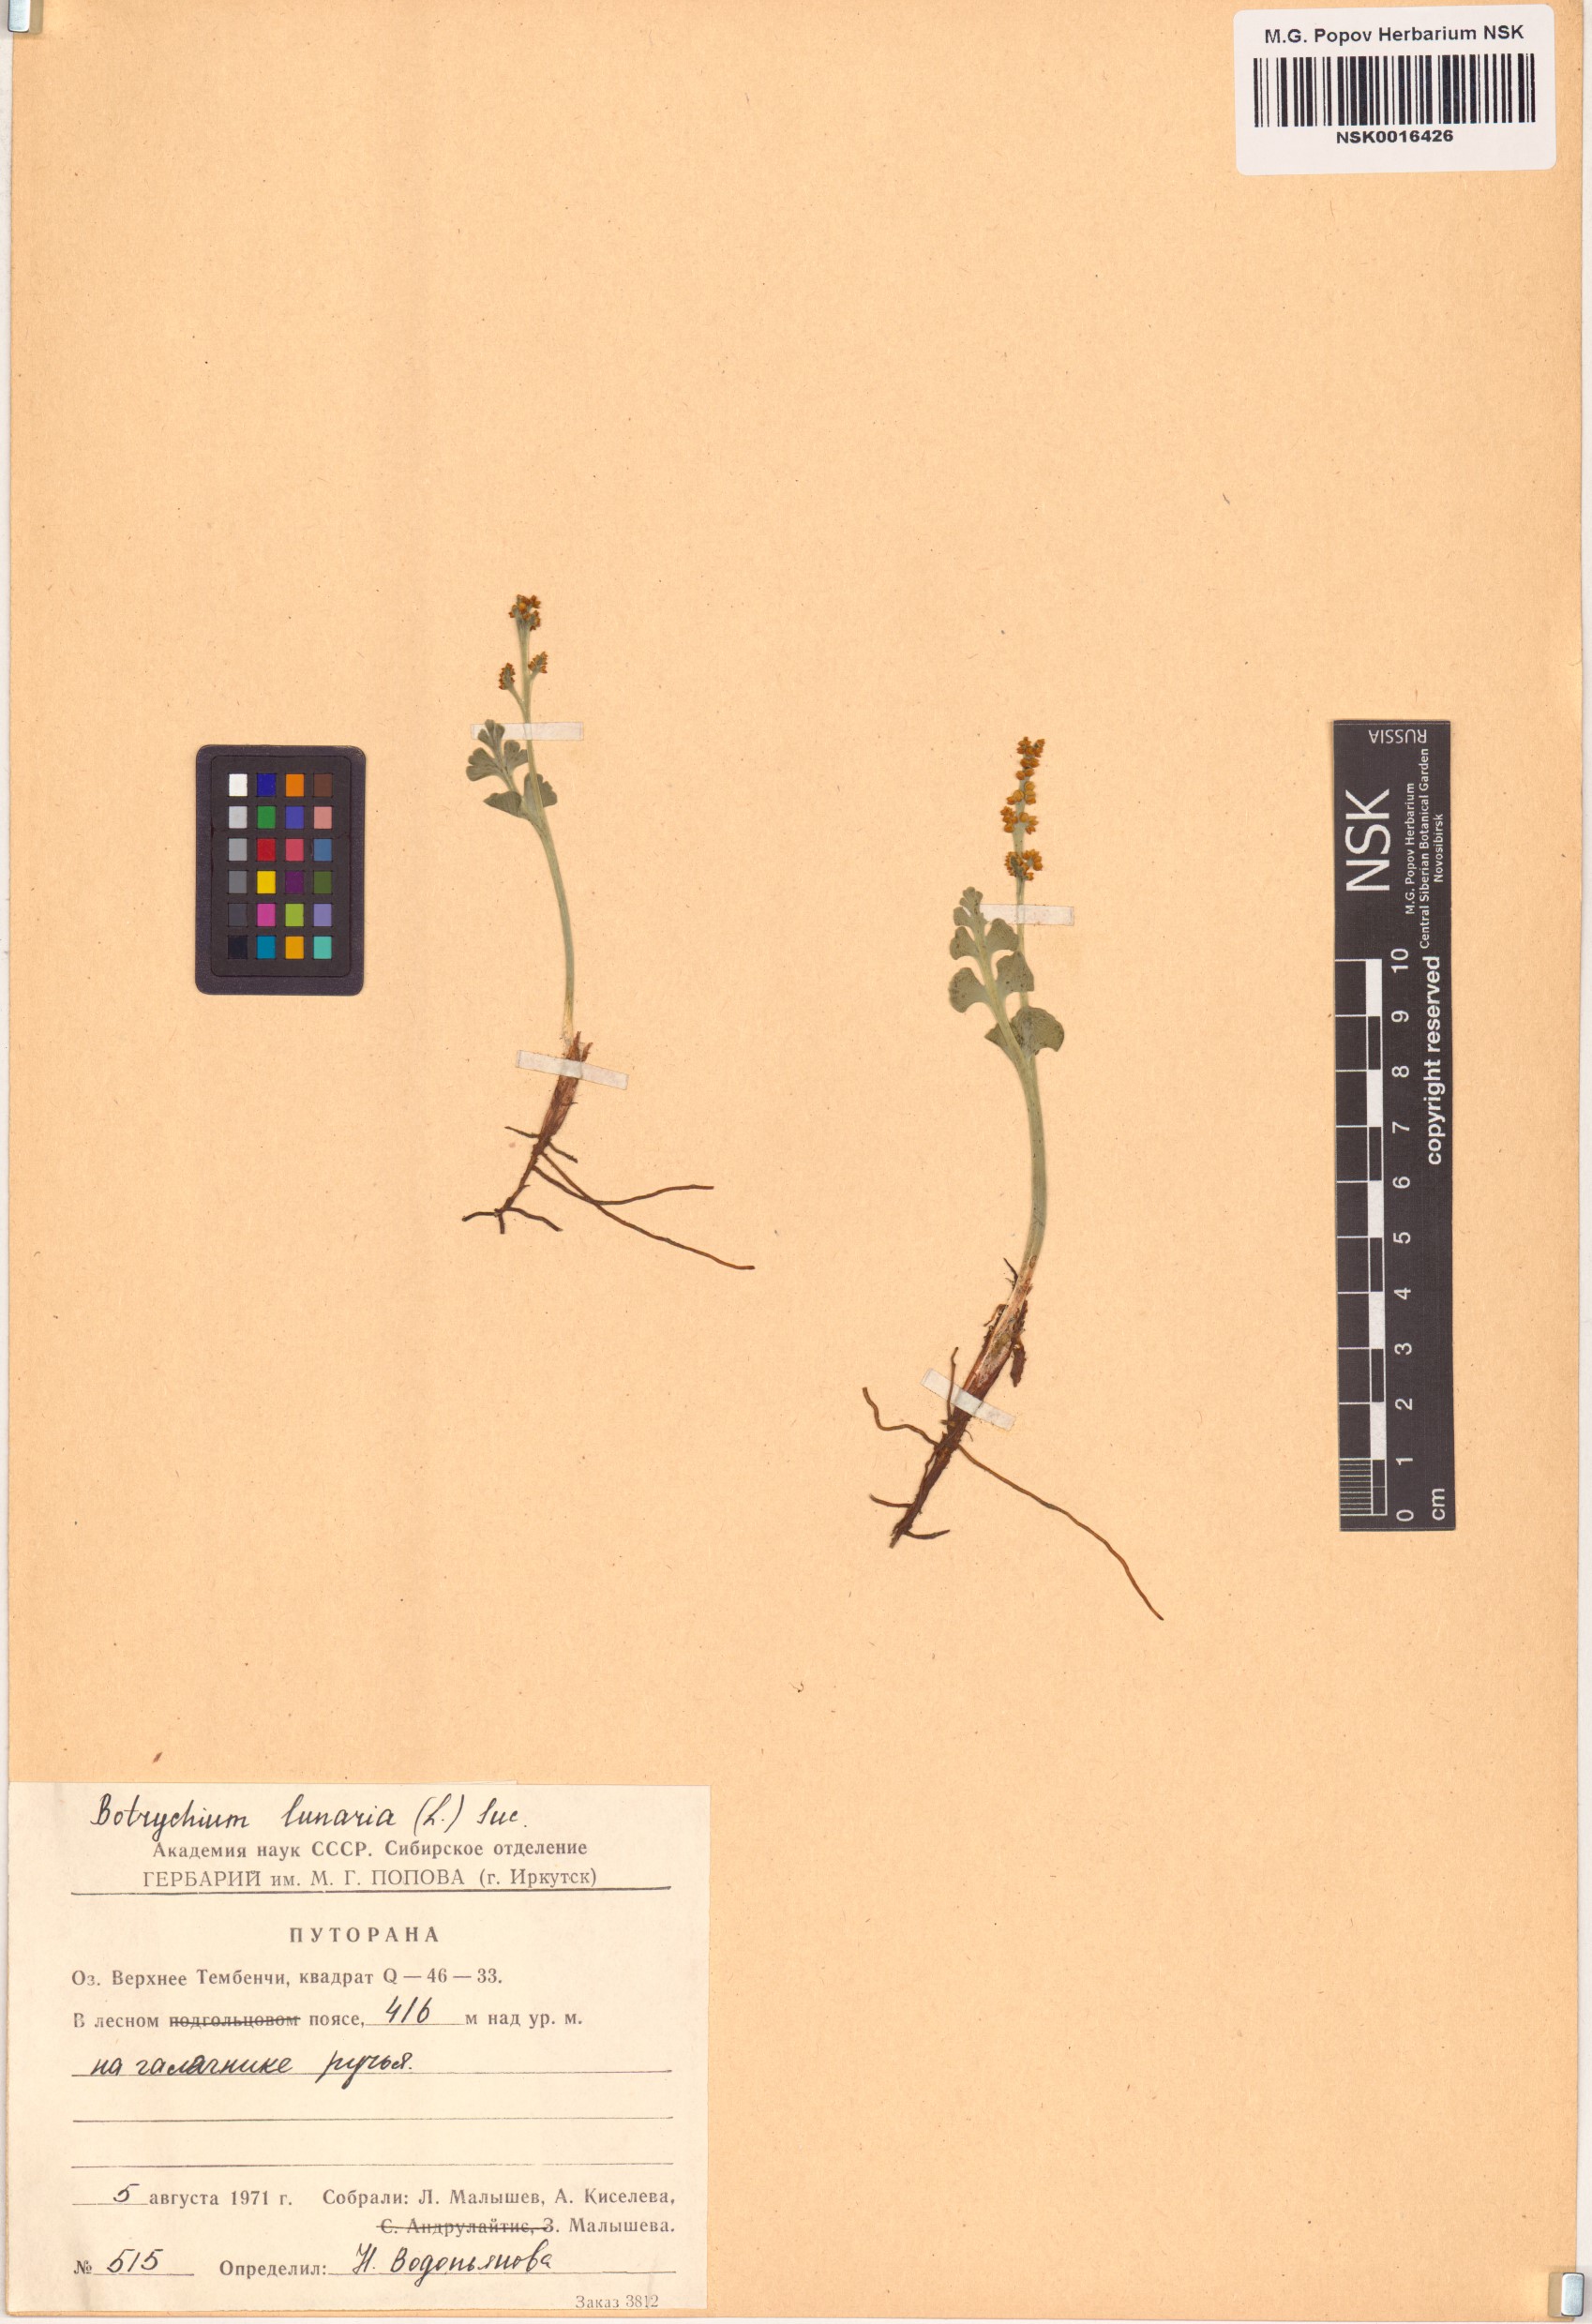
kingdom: Plantae
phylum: Tracheophyta
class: Polypodiopsida
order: Ophioglossales
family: Ophioglossaceae
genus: Botrychium
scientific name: Botrychium lunaria
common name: Moonwort
